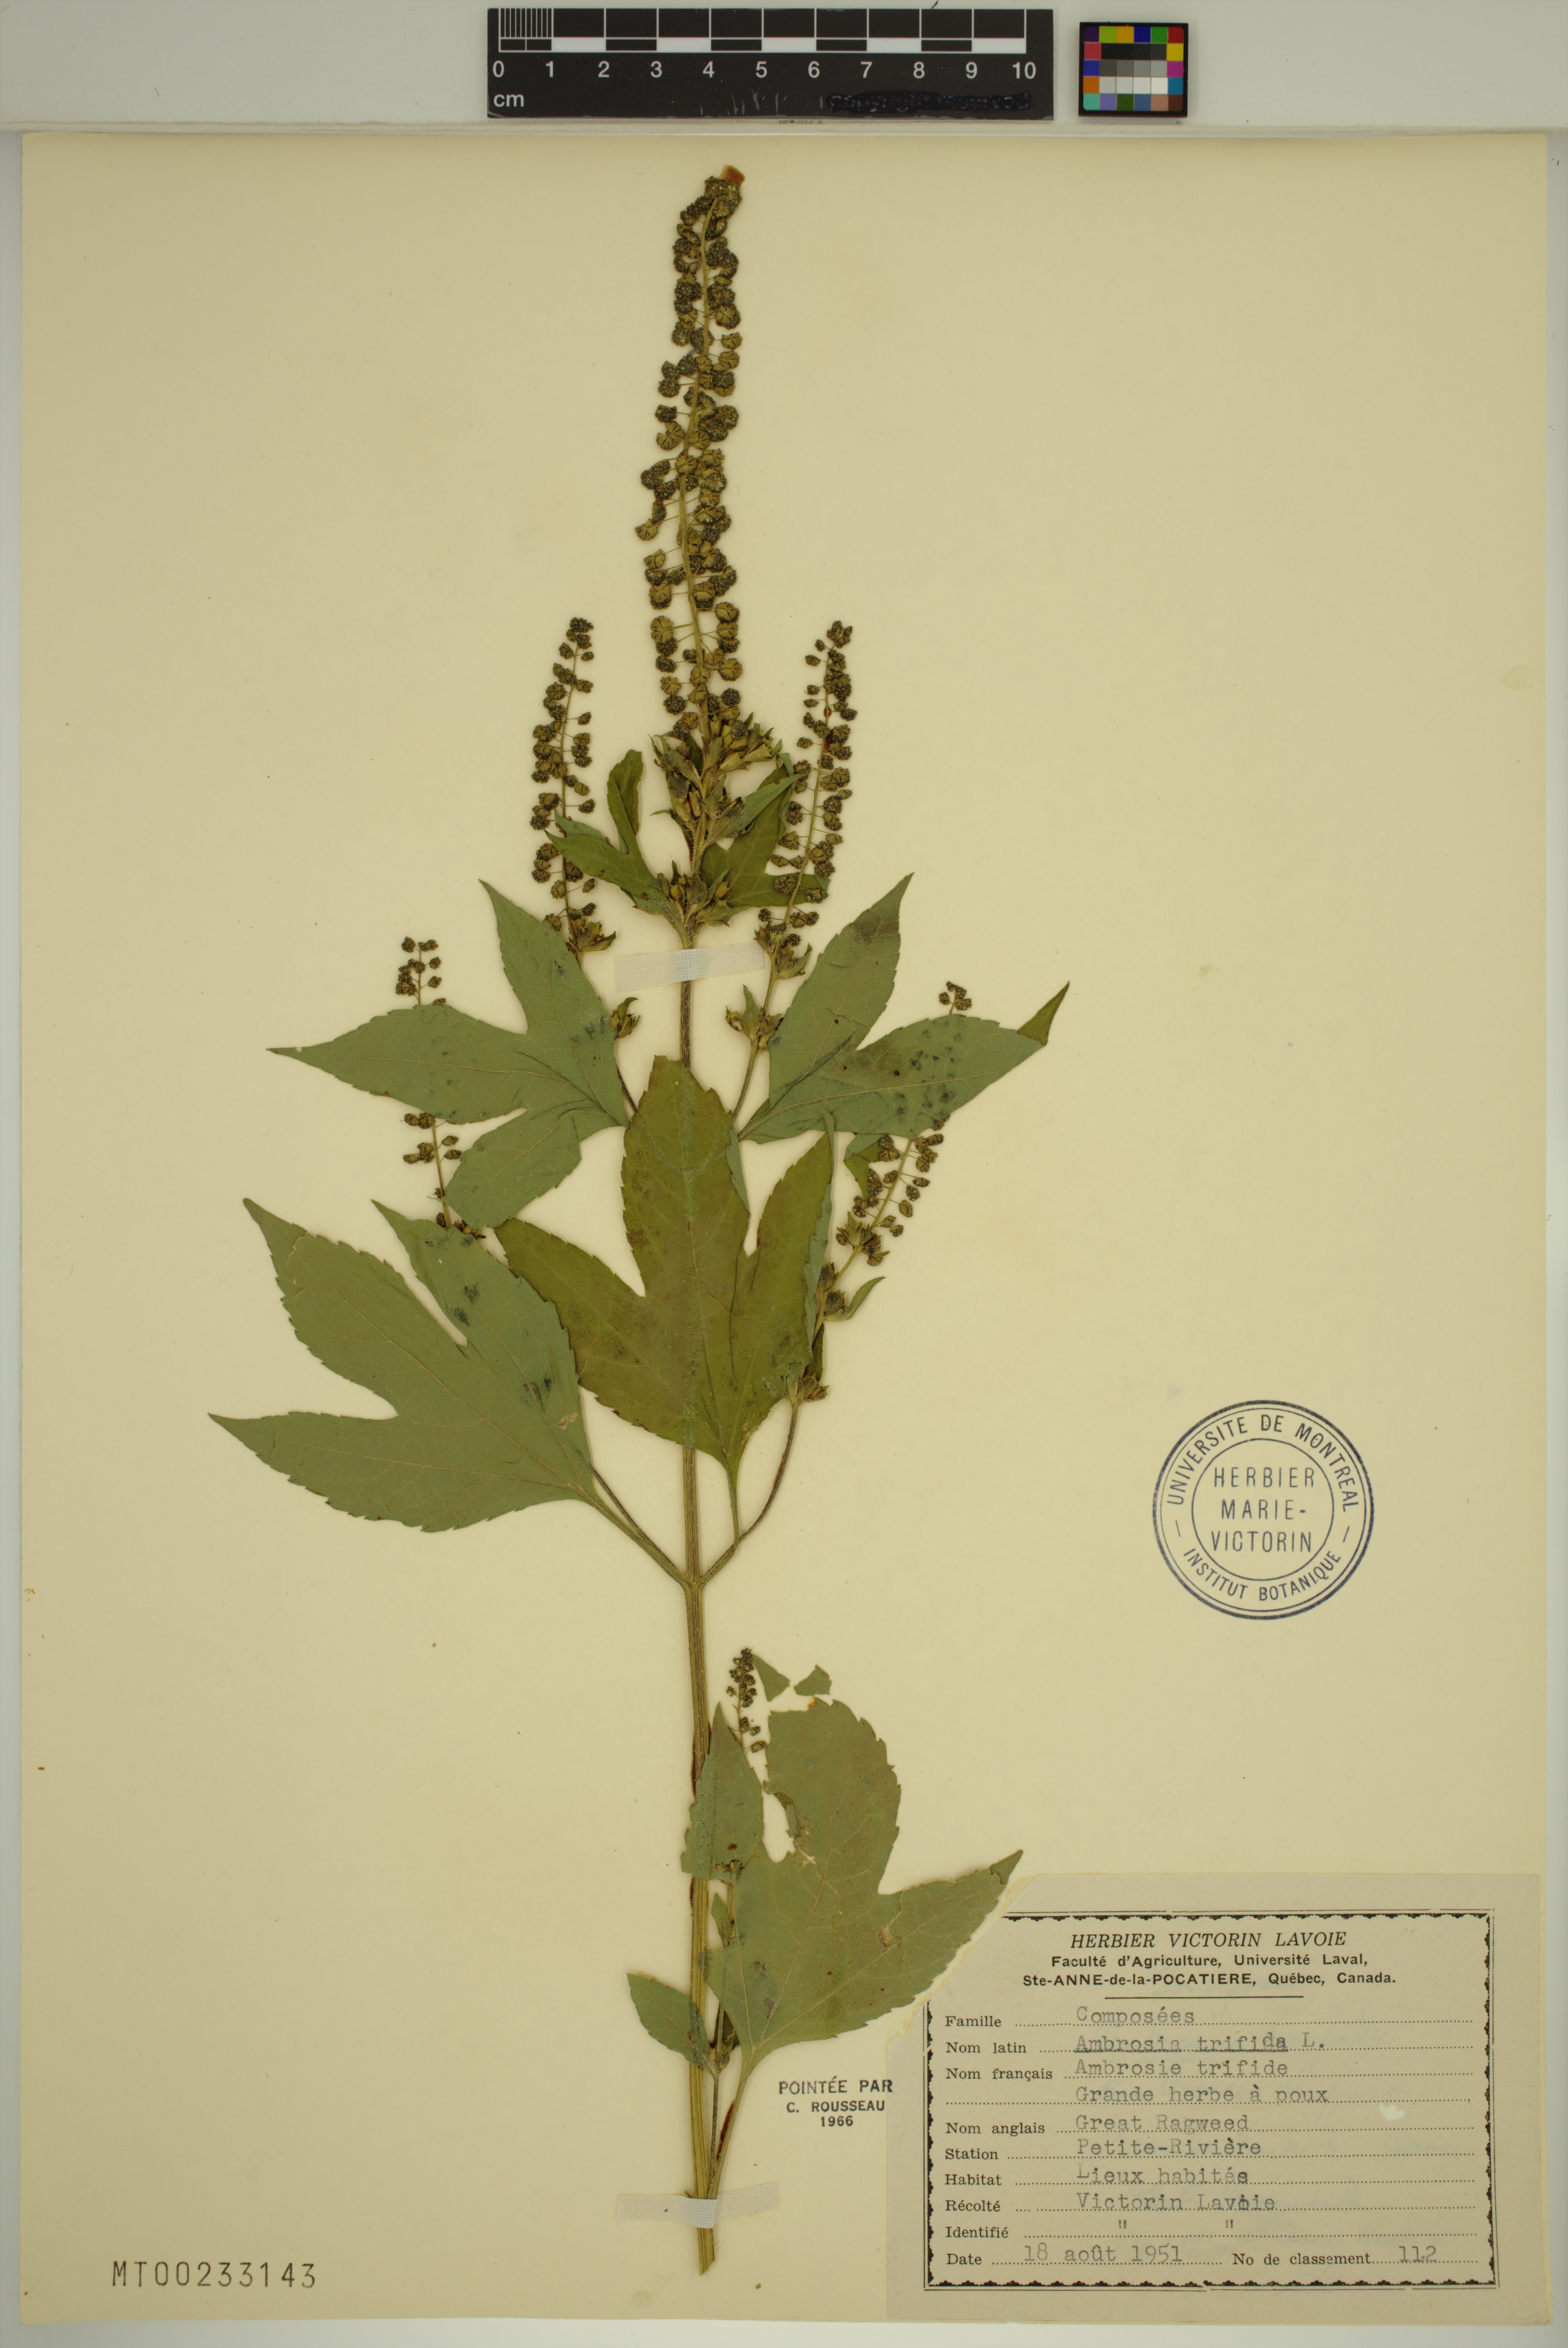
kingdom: Plantae
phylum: Tracheophyta
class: Magnoliopsida
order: Asterales
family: Asteraceae
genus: Ambrosia
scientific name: Ambrosia trifida
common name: Giant ragweed
